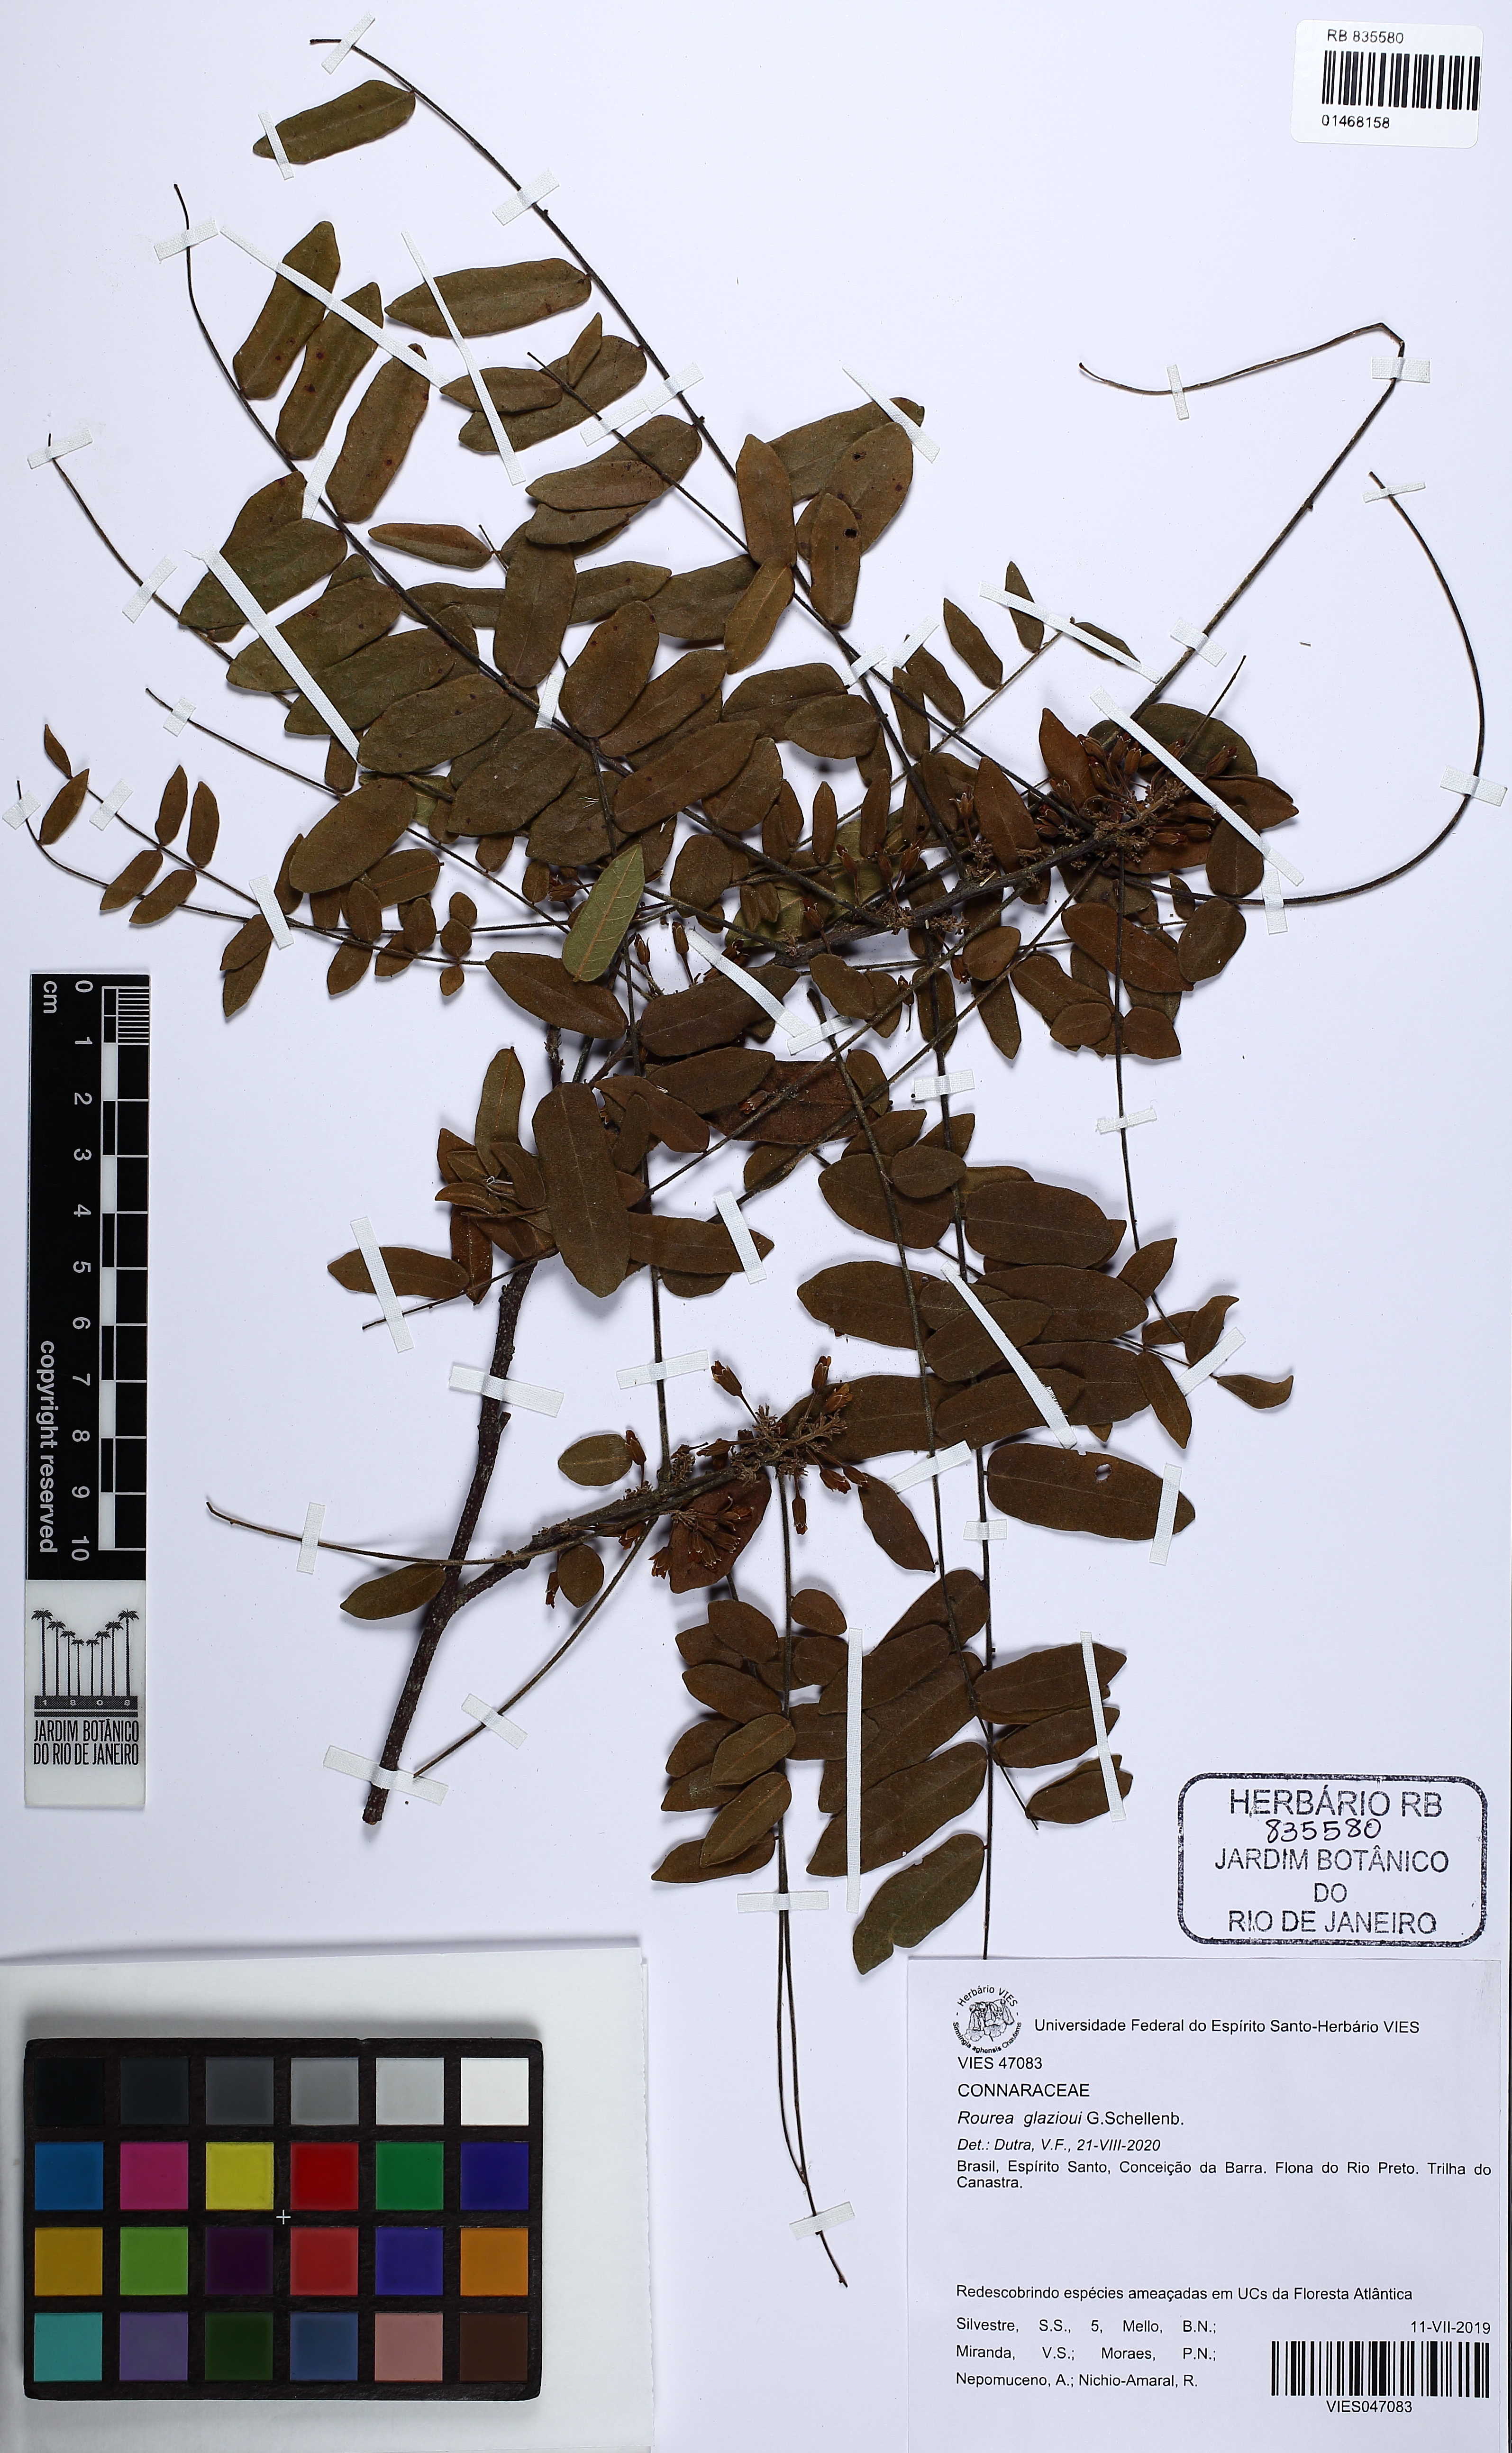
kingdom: Plantae
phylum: Tracheophyta
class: Magnoliopsida
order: Oxalidales
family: Connaraceae
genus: Rourea
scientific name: Rourea glazioui
